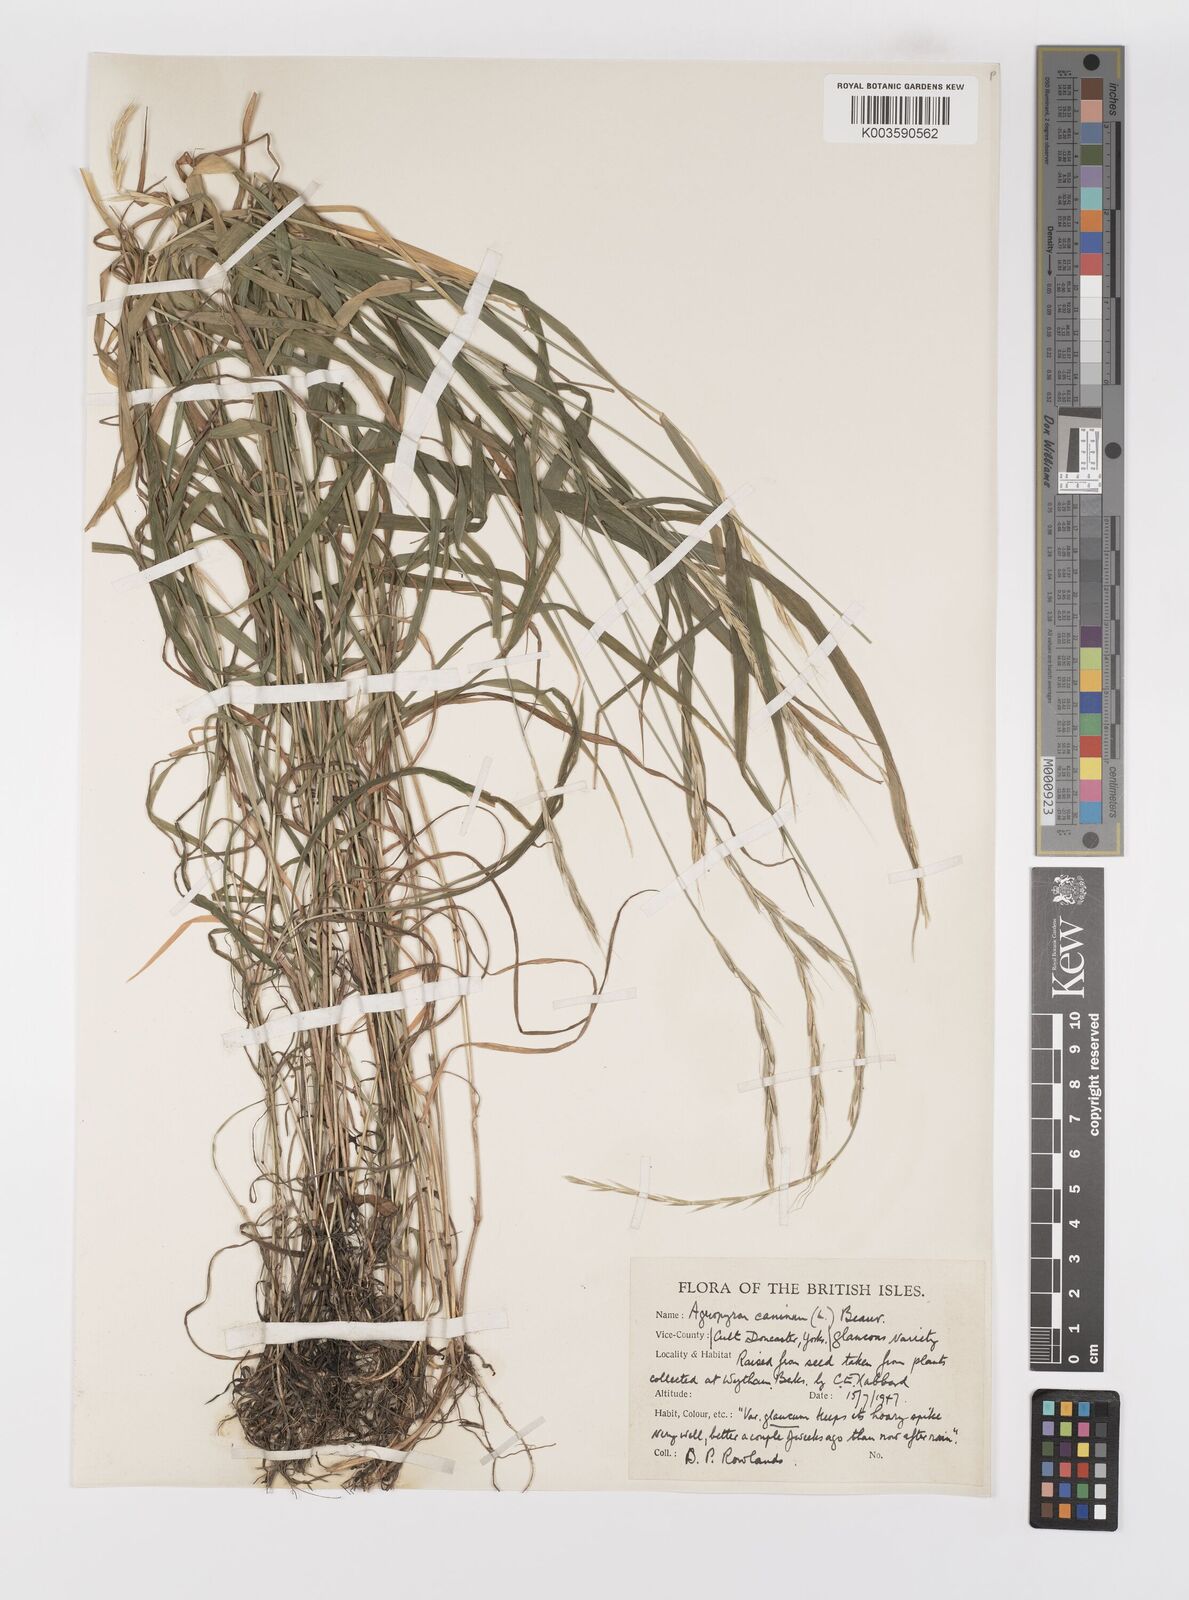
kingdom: Plantae
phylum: Tracheophyta
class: Liliopsida
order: Poales
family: Poaceae
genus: Elymus
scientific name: Elymus caninus
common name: Bearded couch
